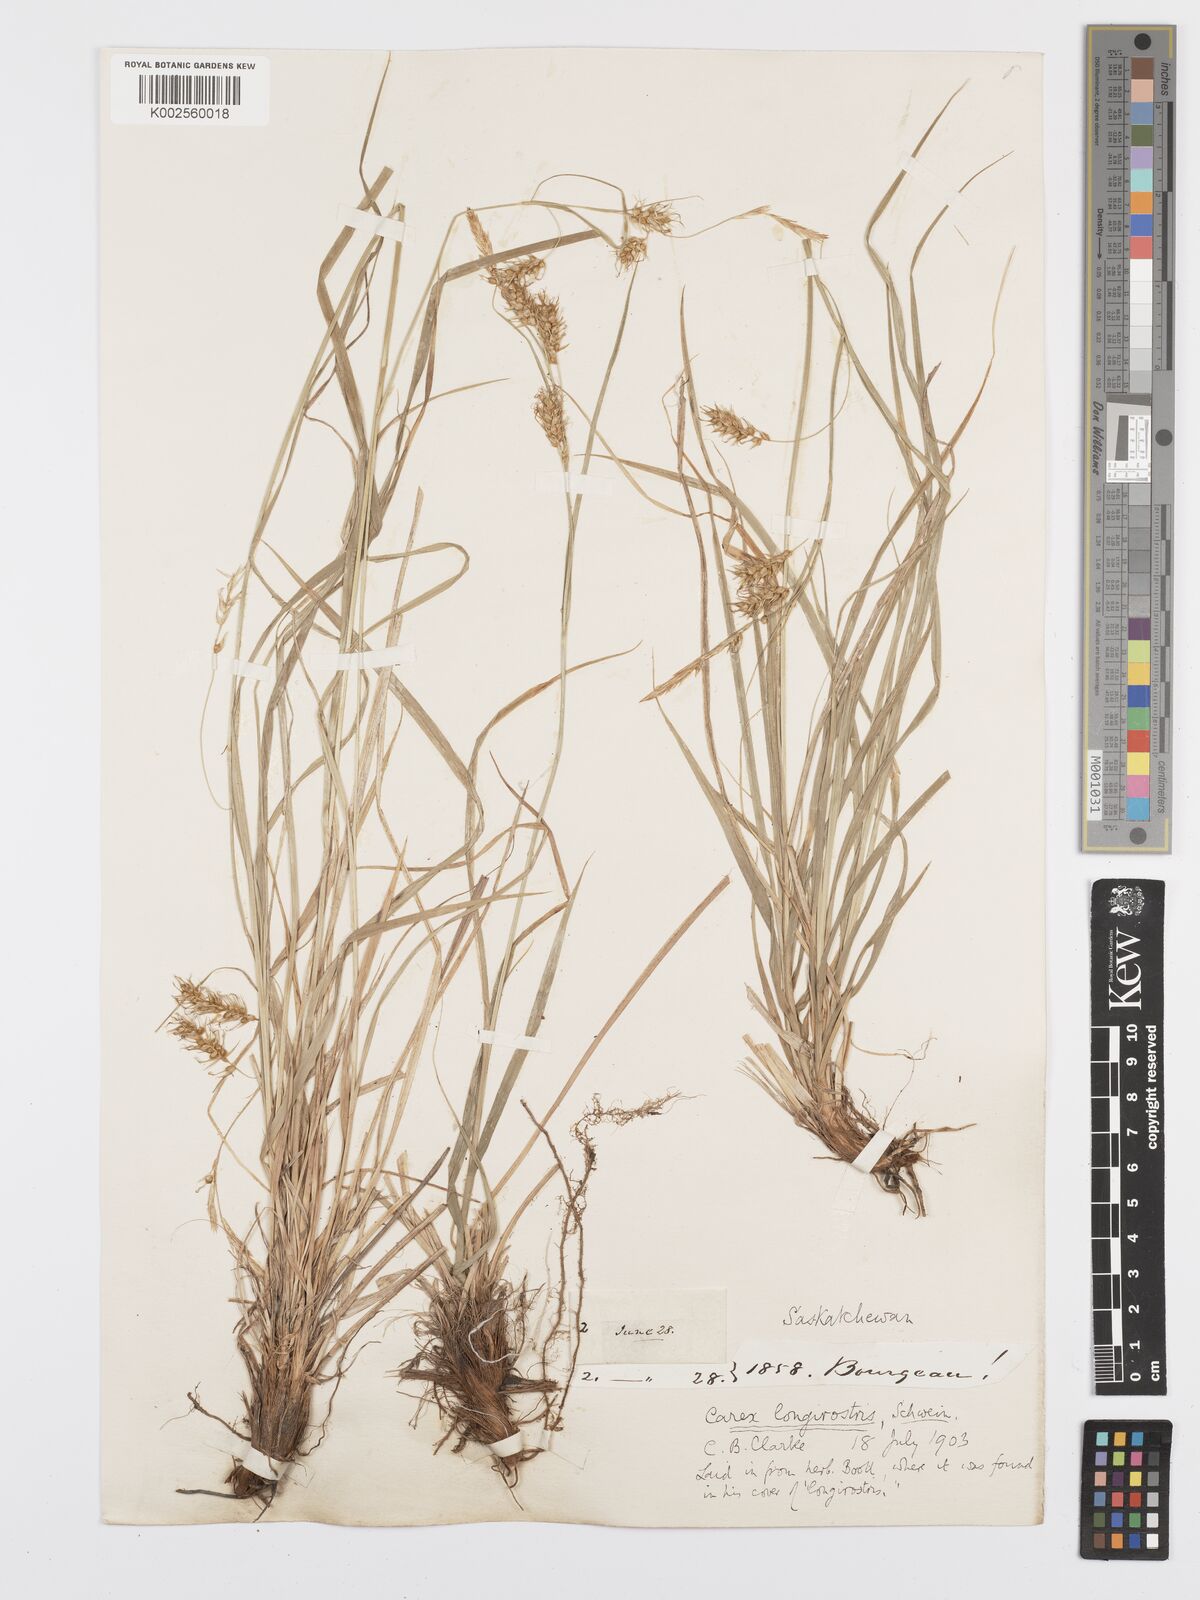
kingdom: Plantae
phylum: Tracheophyta
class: Liliopsida
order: Poales
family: Cyperaceae
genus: Carex
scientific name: Carex sprengelii
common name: Long-beaked sedge
